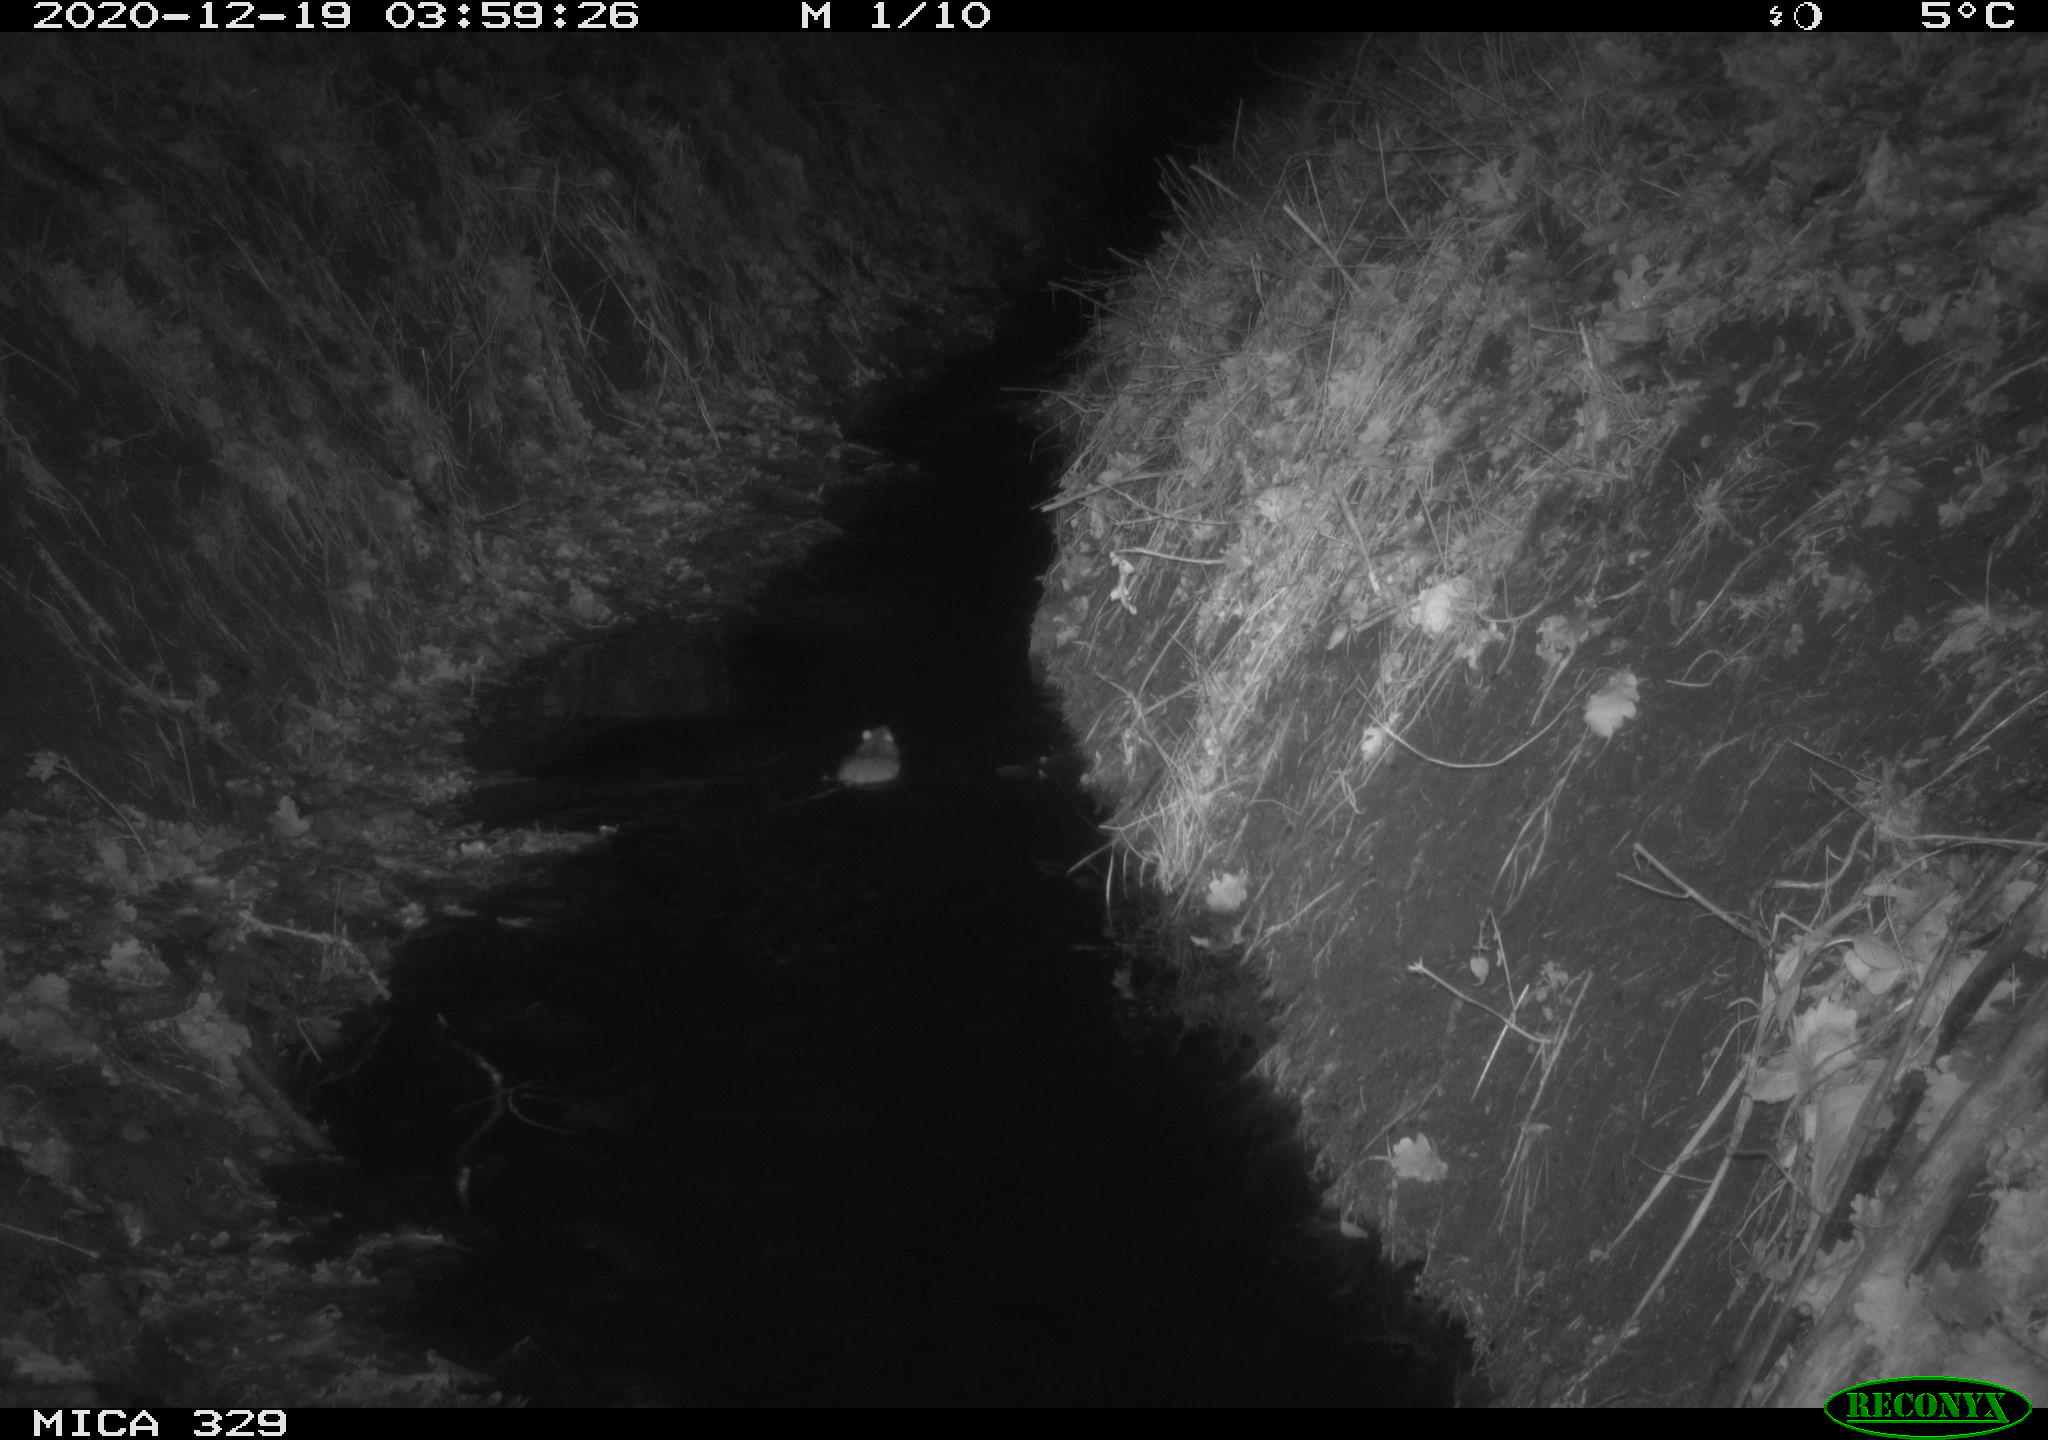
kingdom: Animalia
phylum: Chordata
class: Mammalia
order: Rodentia
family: Muridae
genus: Rattus
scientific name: Rattus norvegicus
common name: Brown rat
